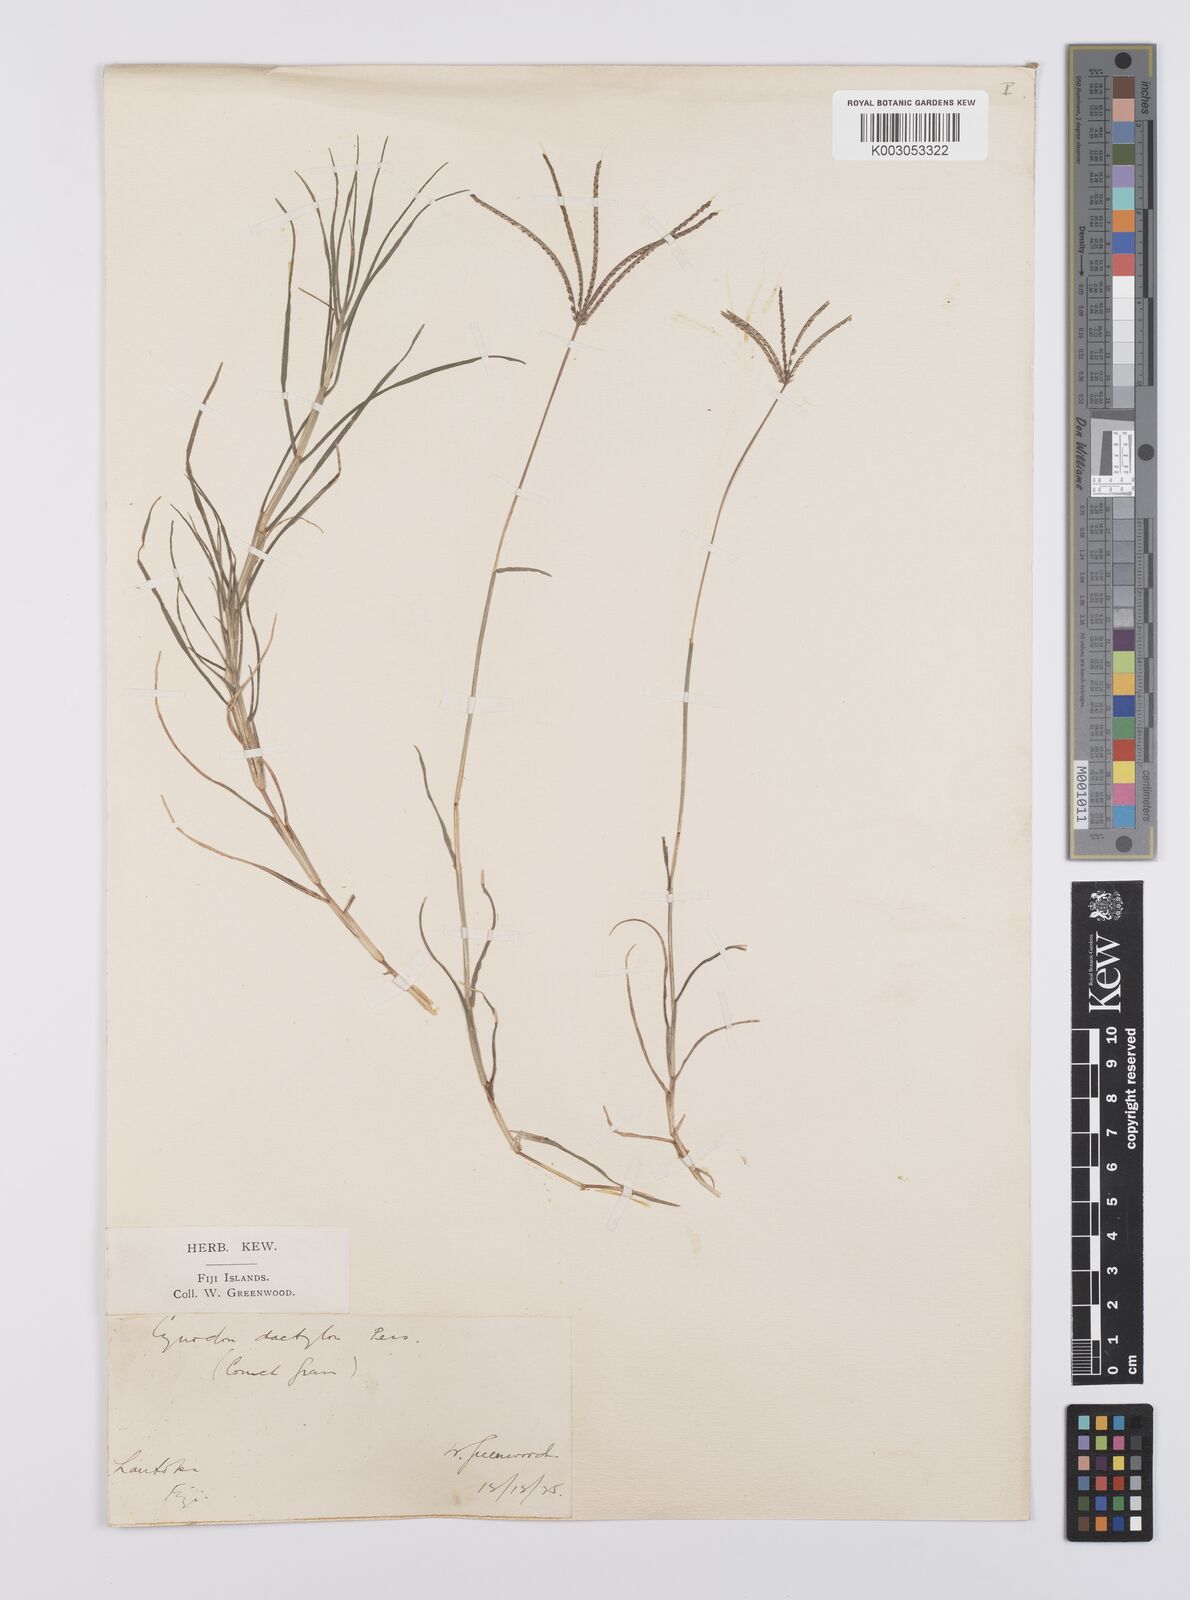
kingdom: Plantae
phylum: Tracheophyta
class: Liliopsida
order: Poales
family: Poaceae
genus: Cynodon
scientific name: Cynodon dactylon
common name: Bermuda grass
